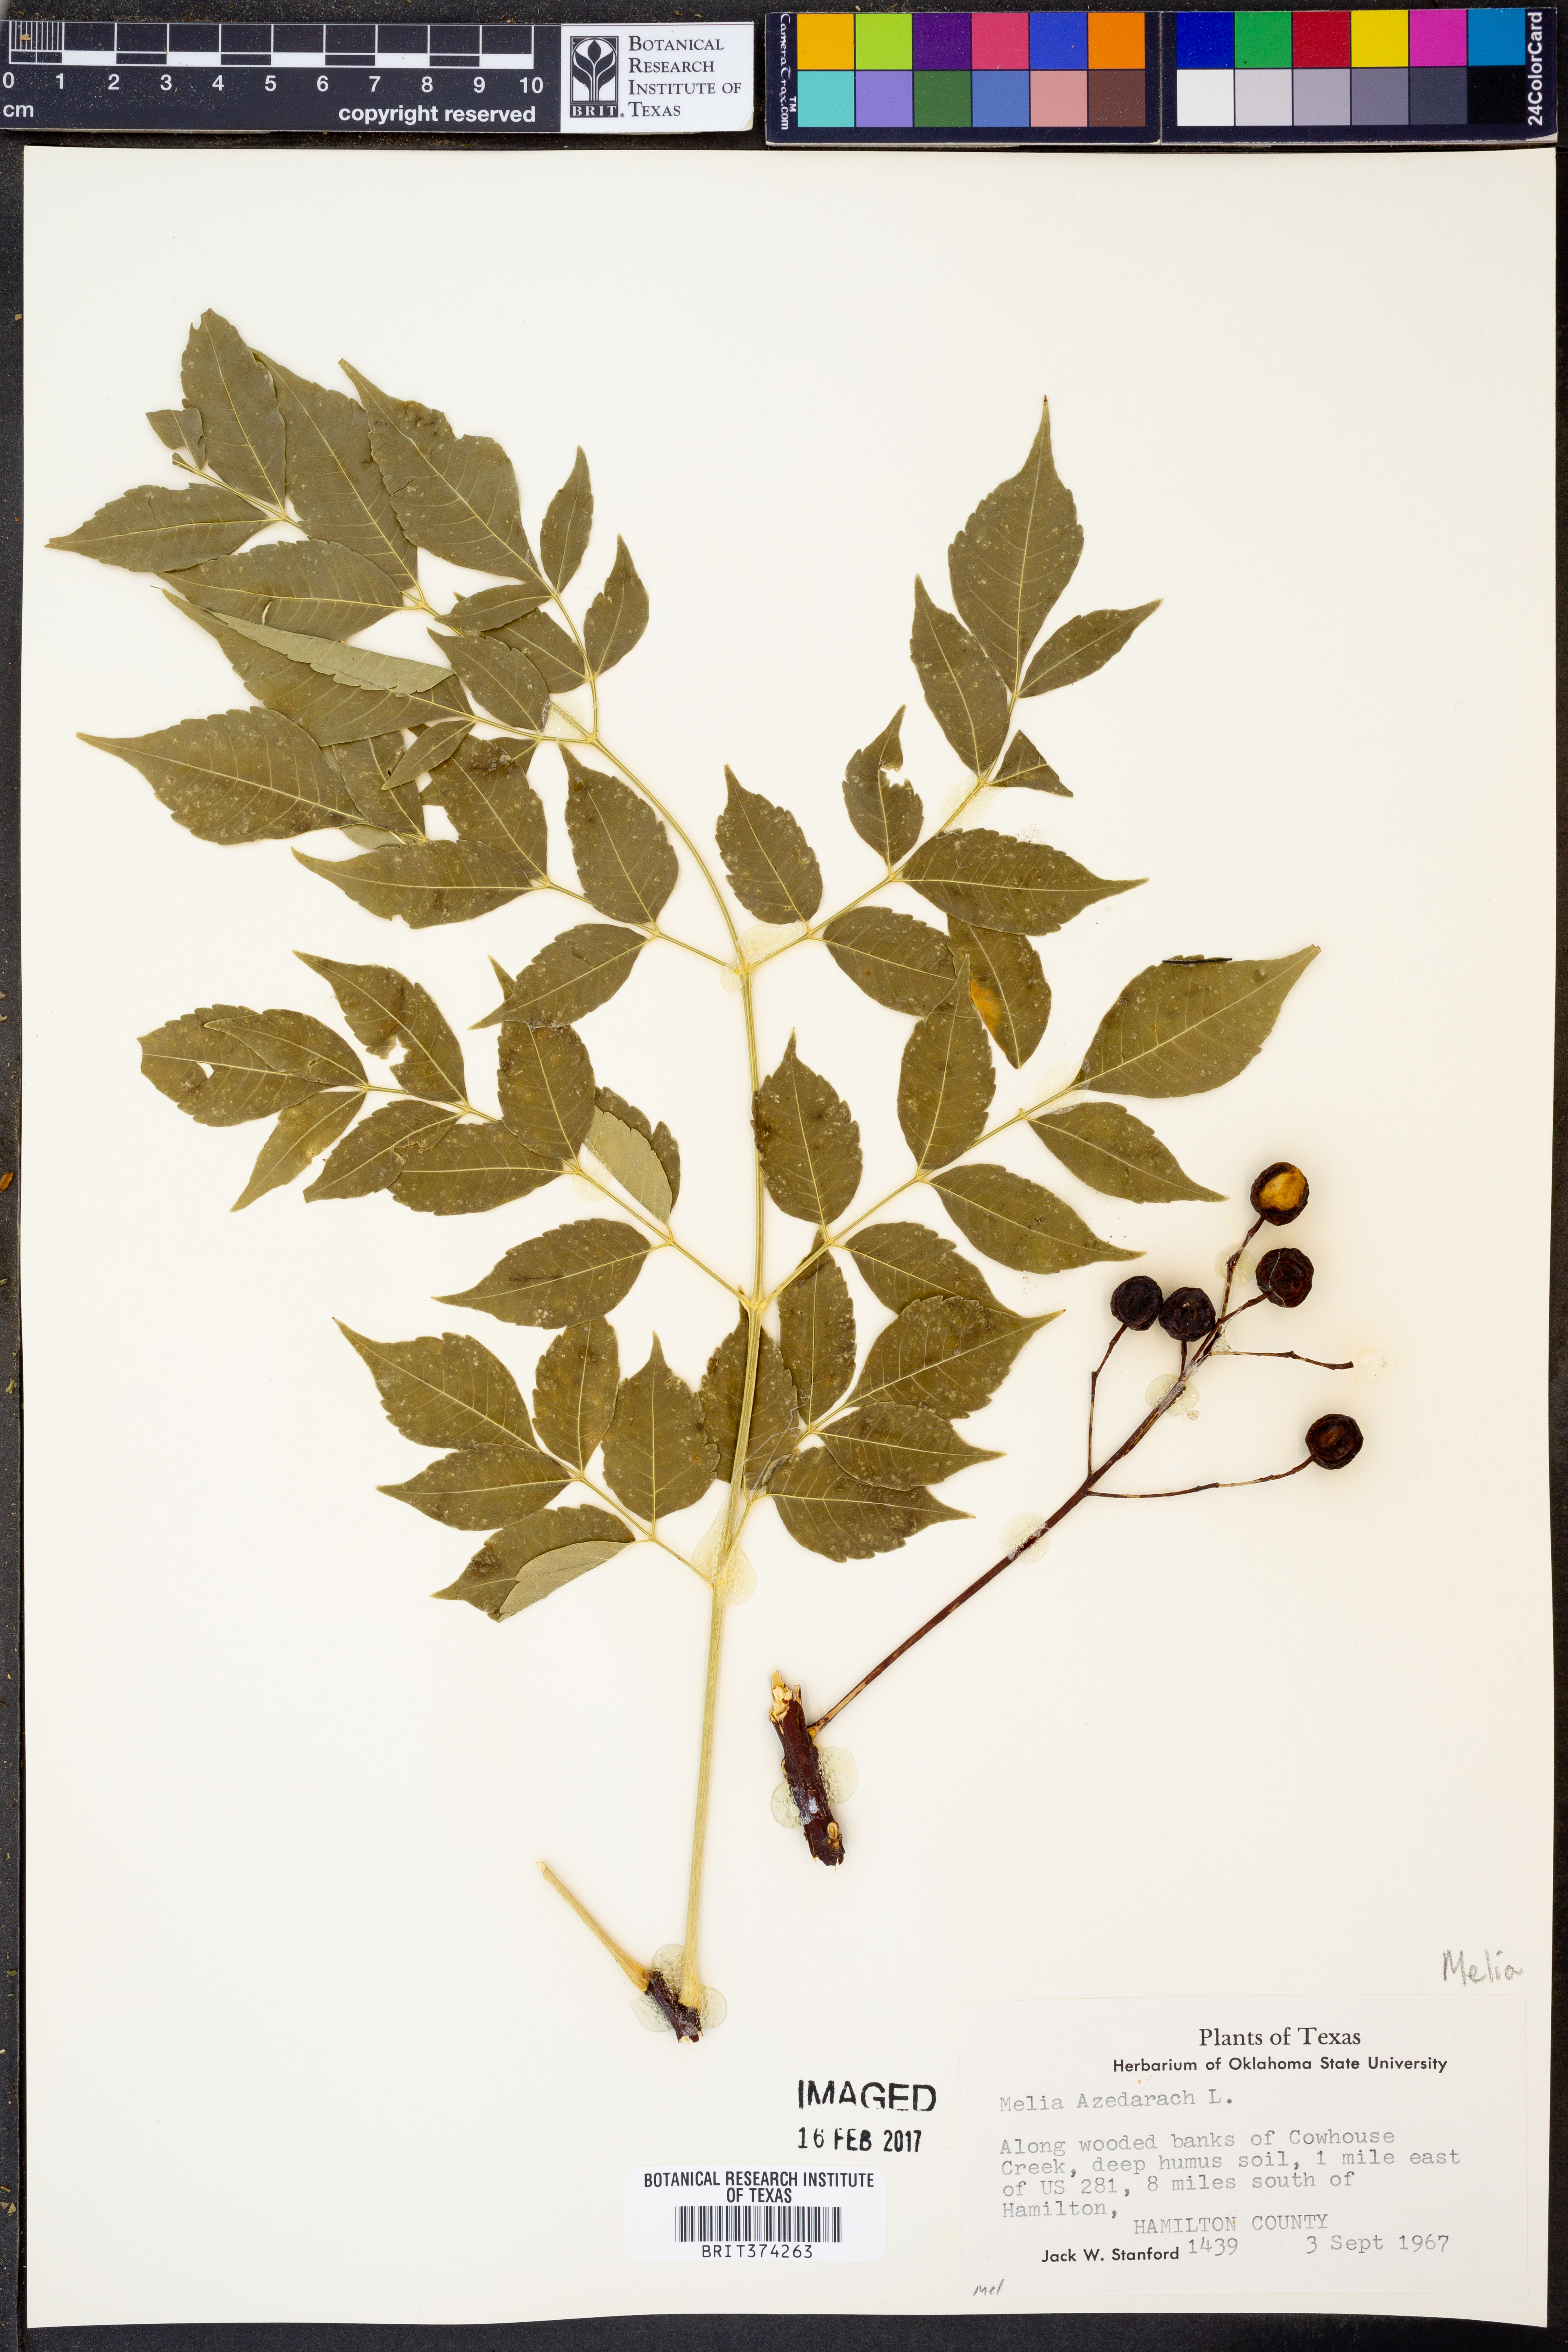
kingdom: Plantae
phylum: Tracheophyta
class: Magnoliopsida
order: Sapindales
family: Meliaceae
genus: Melia
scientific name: Melia azedarach
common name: Chinaberrytree
